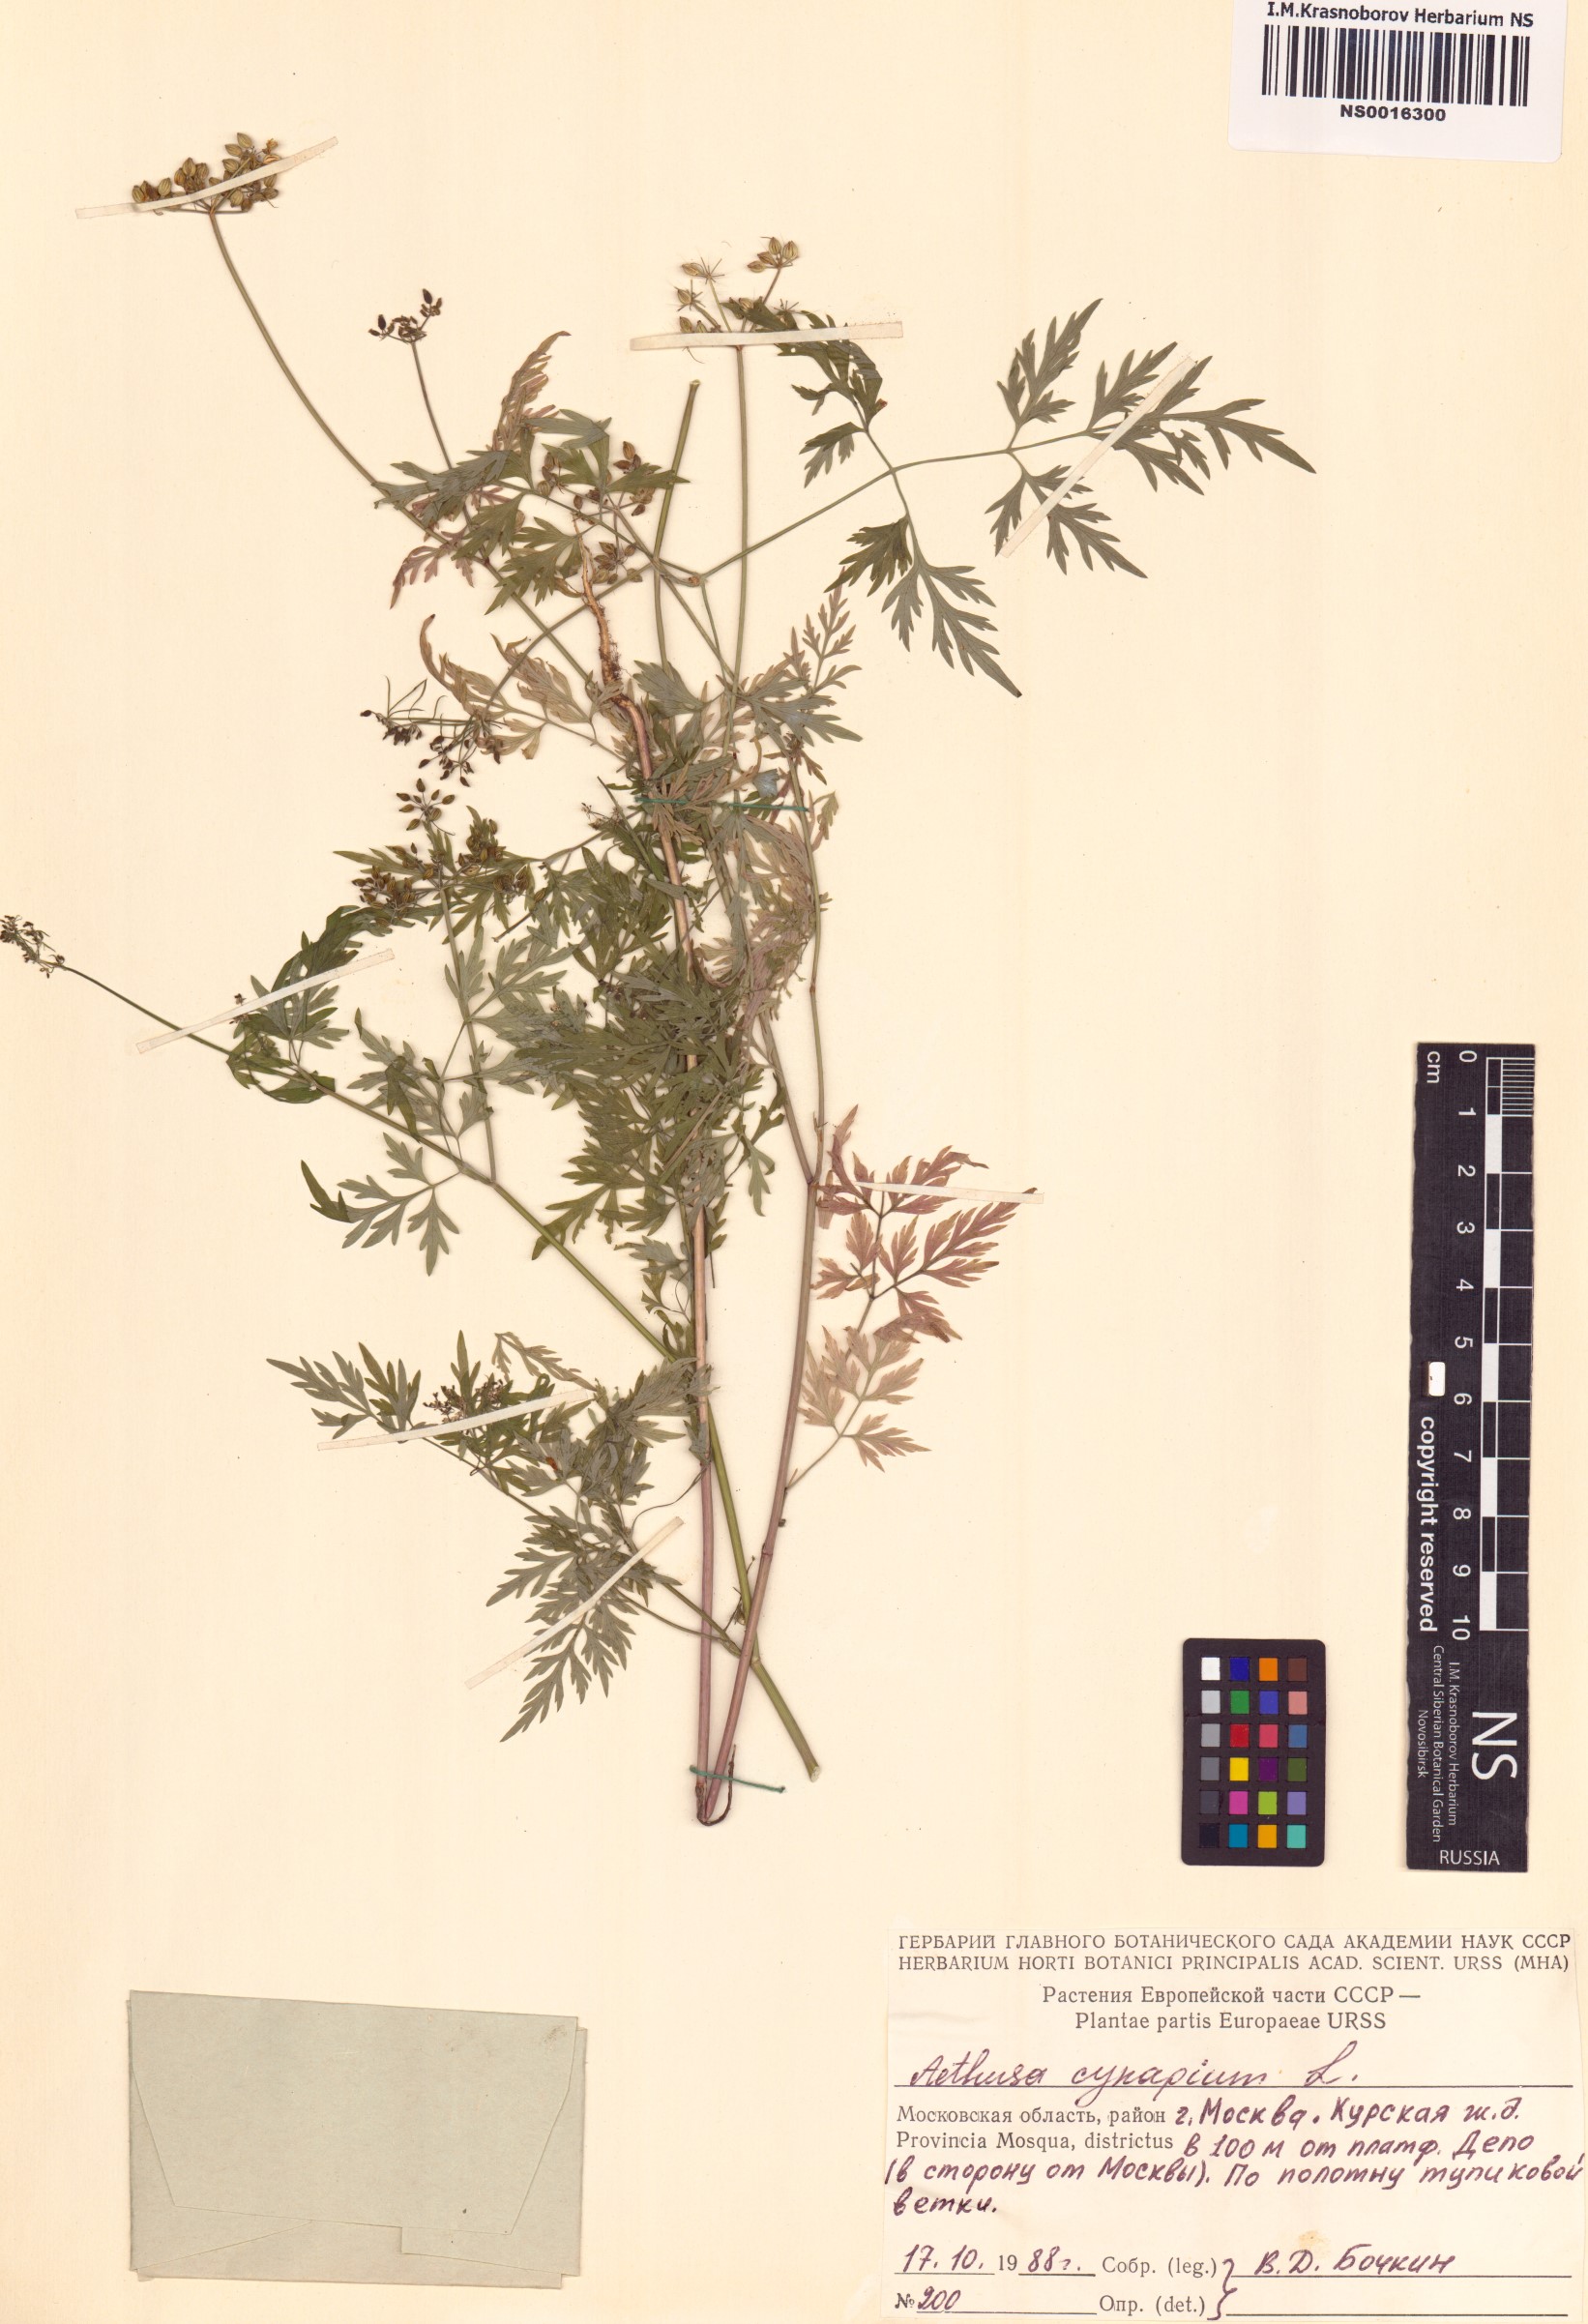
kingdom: Plantae
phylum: Tracheophyta
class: Magnoliopsida
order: Apiales
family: Apiaceae
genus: Aethusa
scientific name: Aethusa cynapium
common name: Fool's parsley
